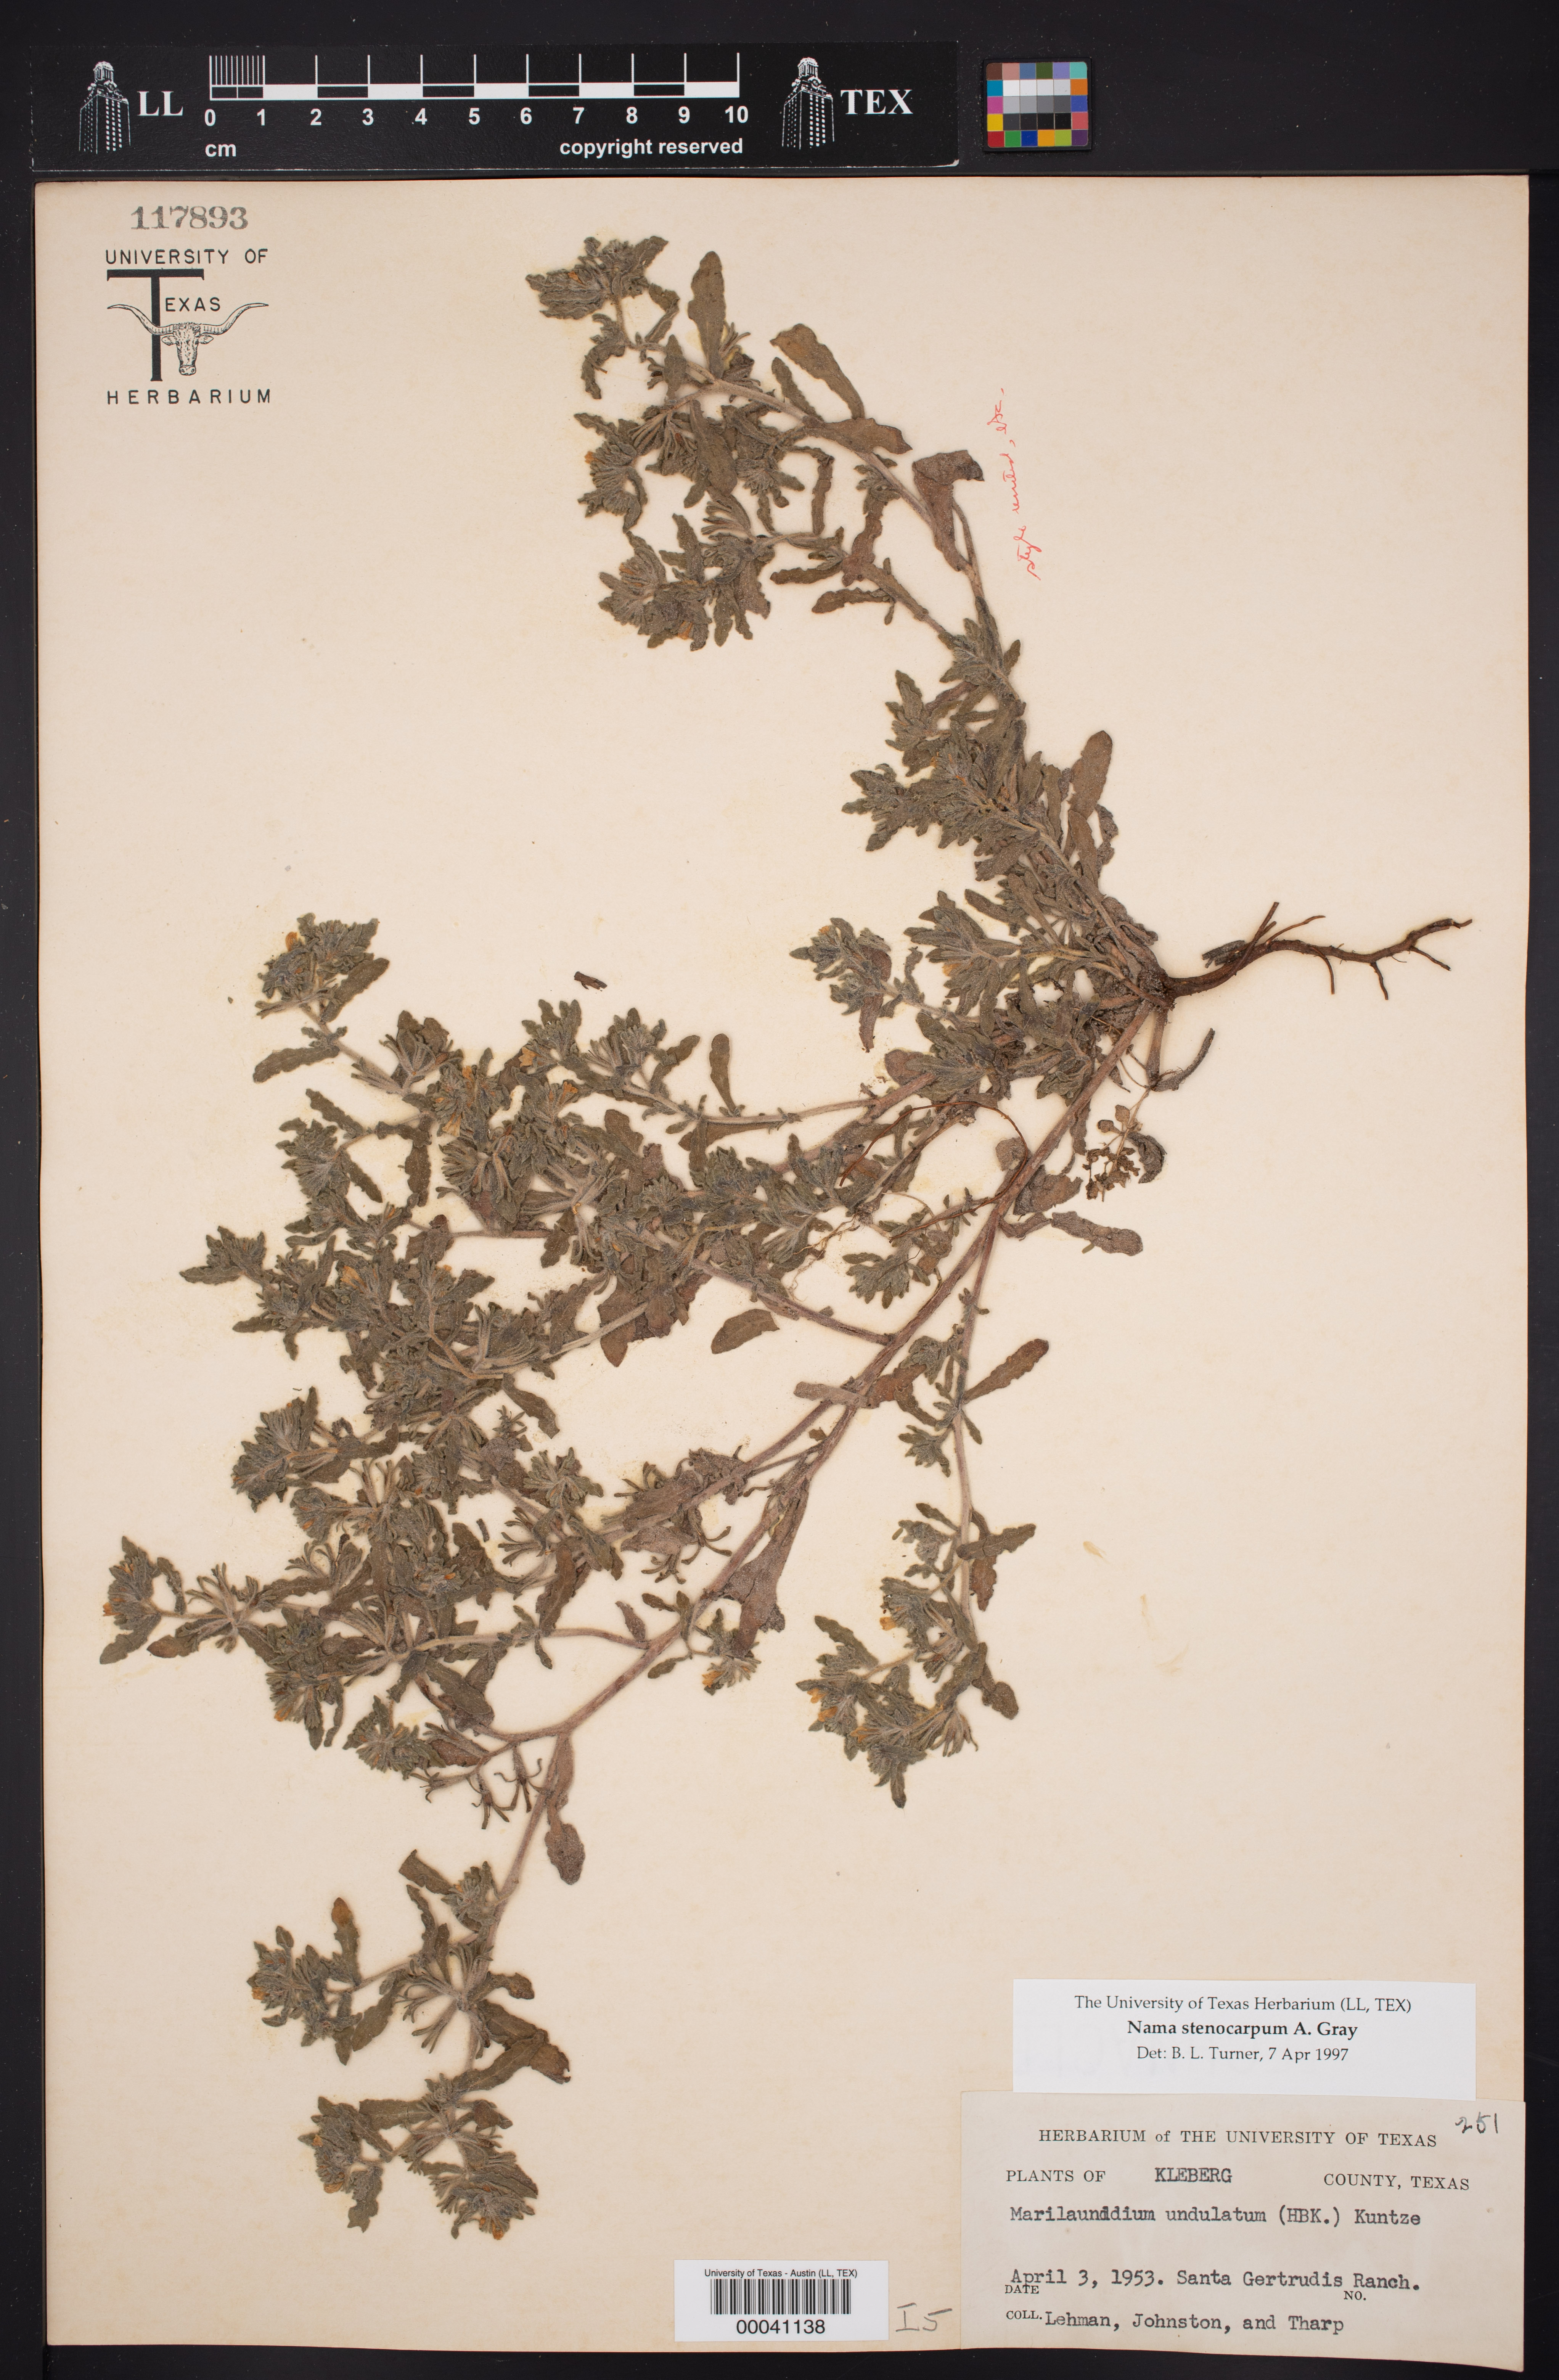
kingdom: Plantae
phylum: Tracheophyta
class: Magnoliopsida
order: Boraginales
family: Namaceae
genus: Nama
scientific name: Nama stenocarpa
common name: Mud fiddleleaf
